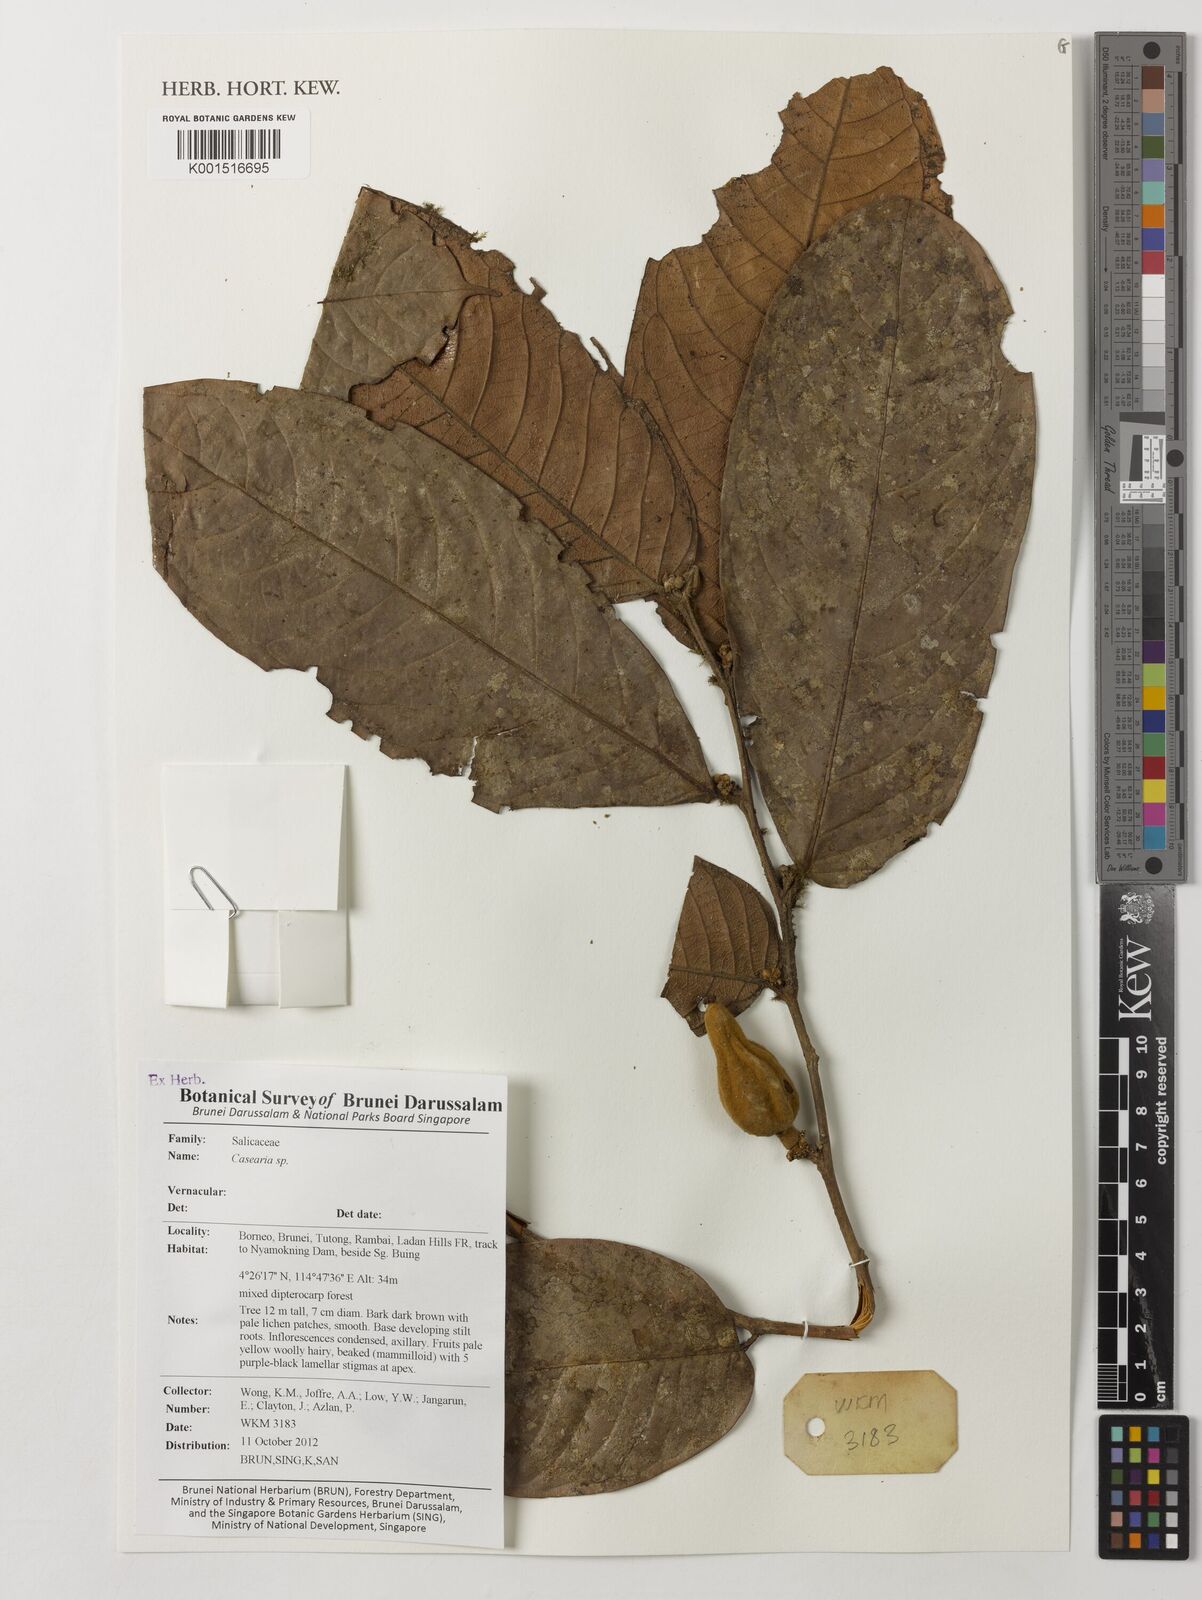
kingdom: Plantae
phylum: Tracheophyta
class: Magnoliopsida
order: Malpighiales
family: Salicaceae
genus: Casearia
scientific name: Casearia
